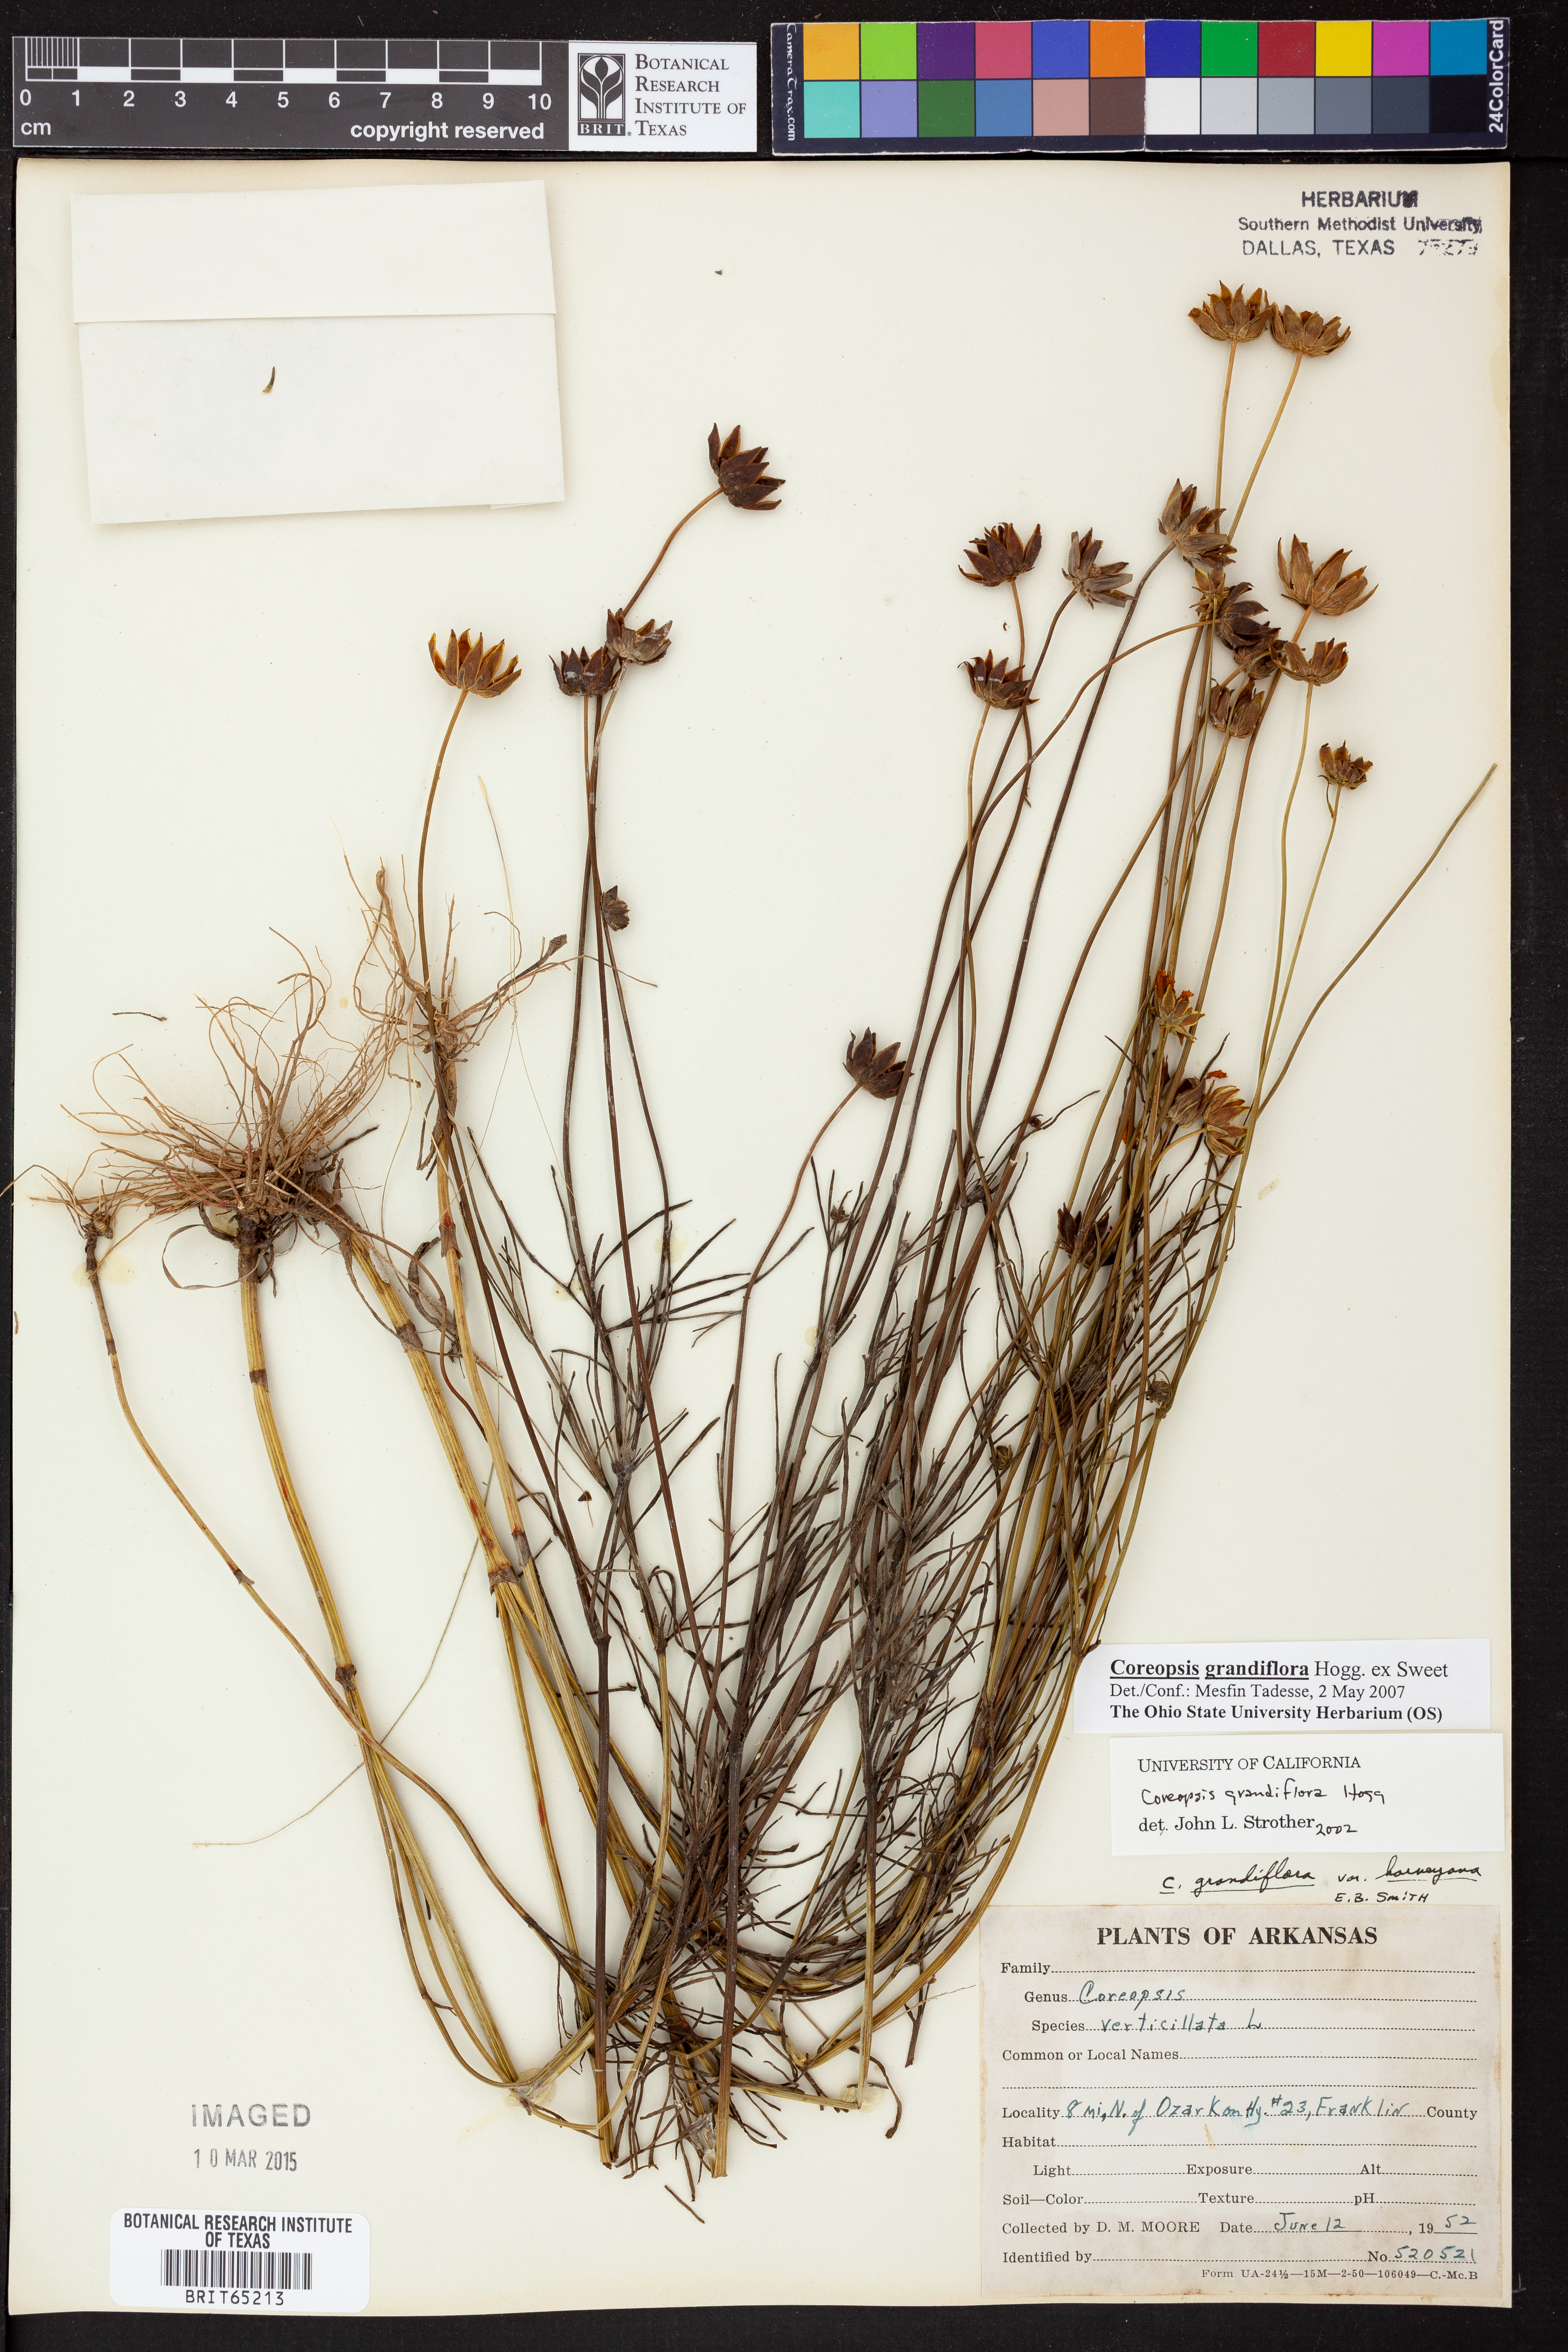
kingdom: Plantae
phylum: Tracheophyta
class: Magnoliopsida
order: Asterales
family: Asteraceae
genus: Coreopsis
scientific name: Coreopsis grandiflora
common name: Large-flowered tickseed
